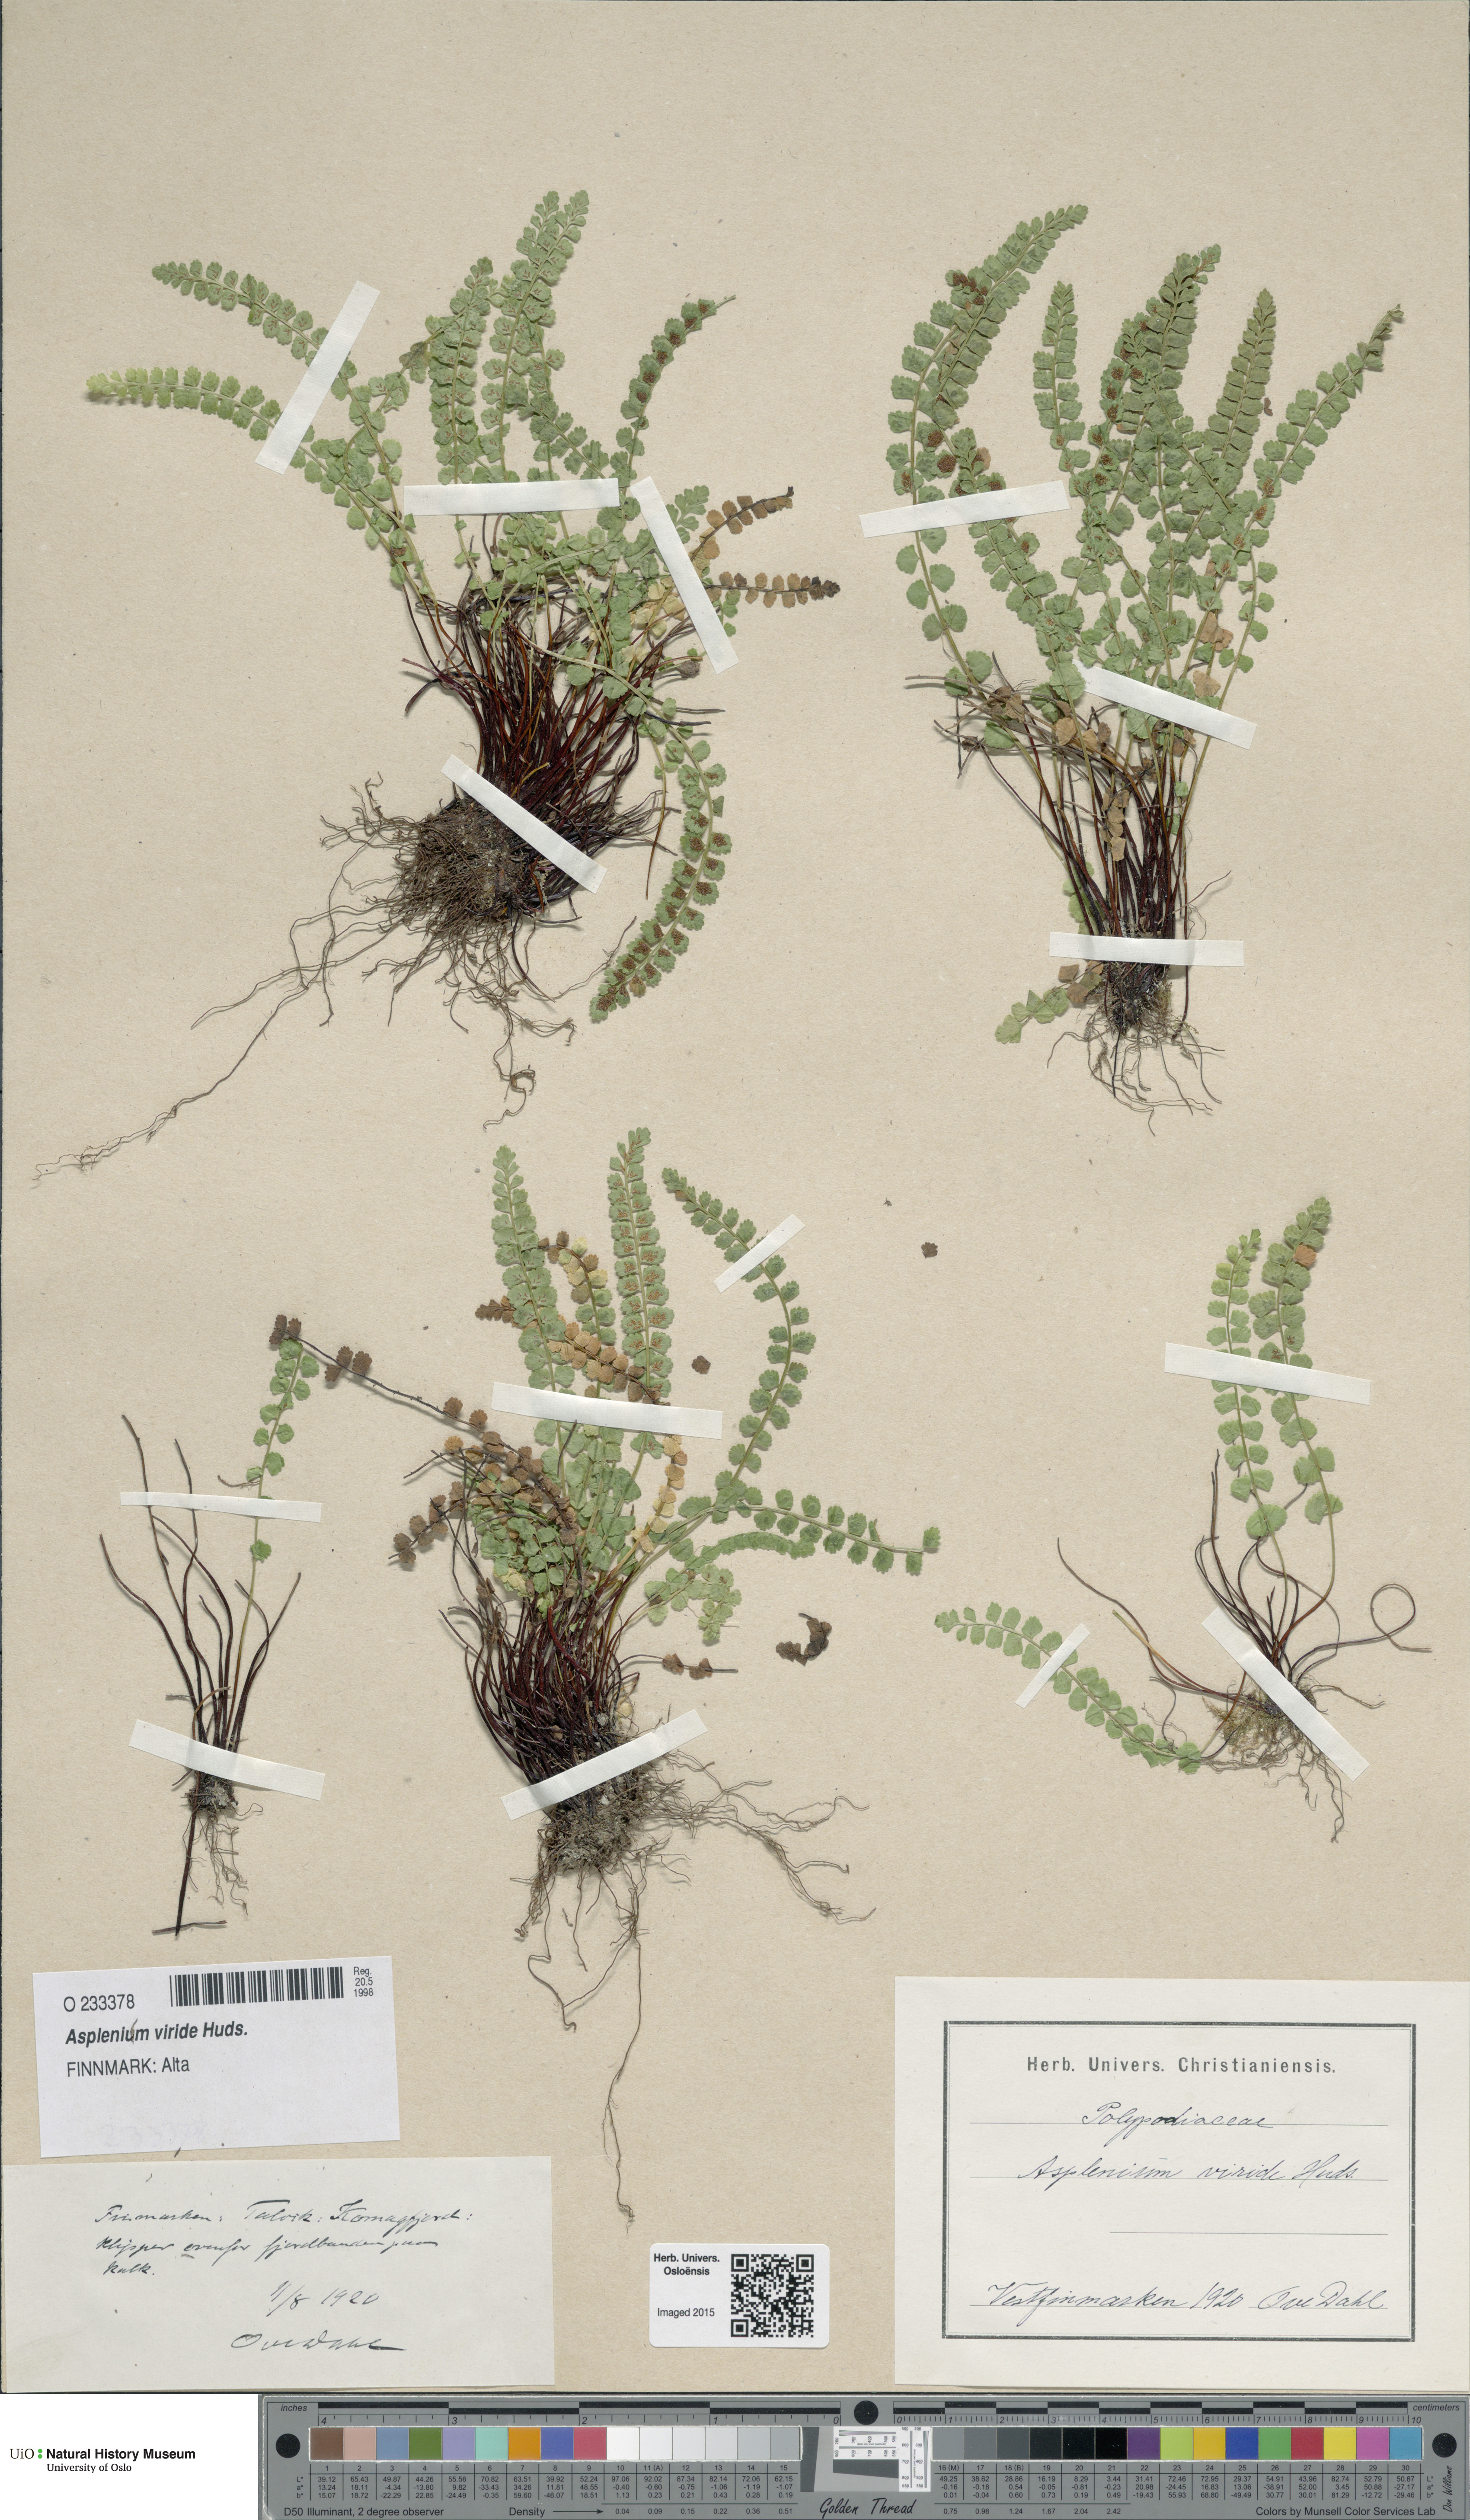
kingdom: Plantae
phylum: Tracheophyta
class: Polypodiopsida
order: Polypodiales
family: Aspleniaceae
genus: Asplenium
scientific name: Asplenium viride
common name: Green spleenwort
